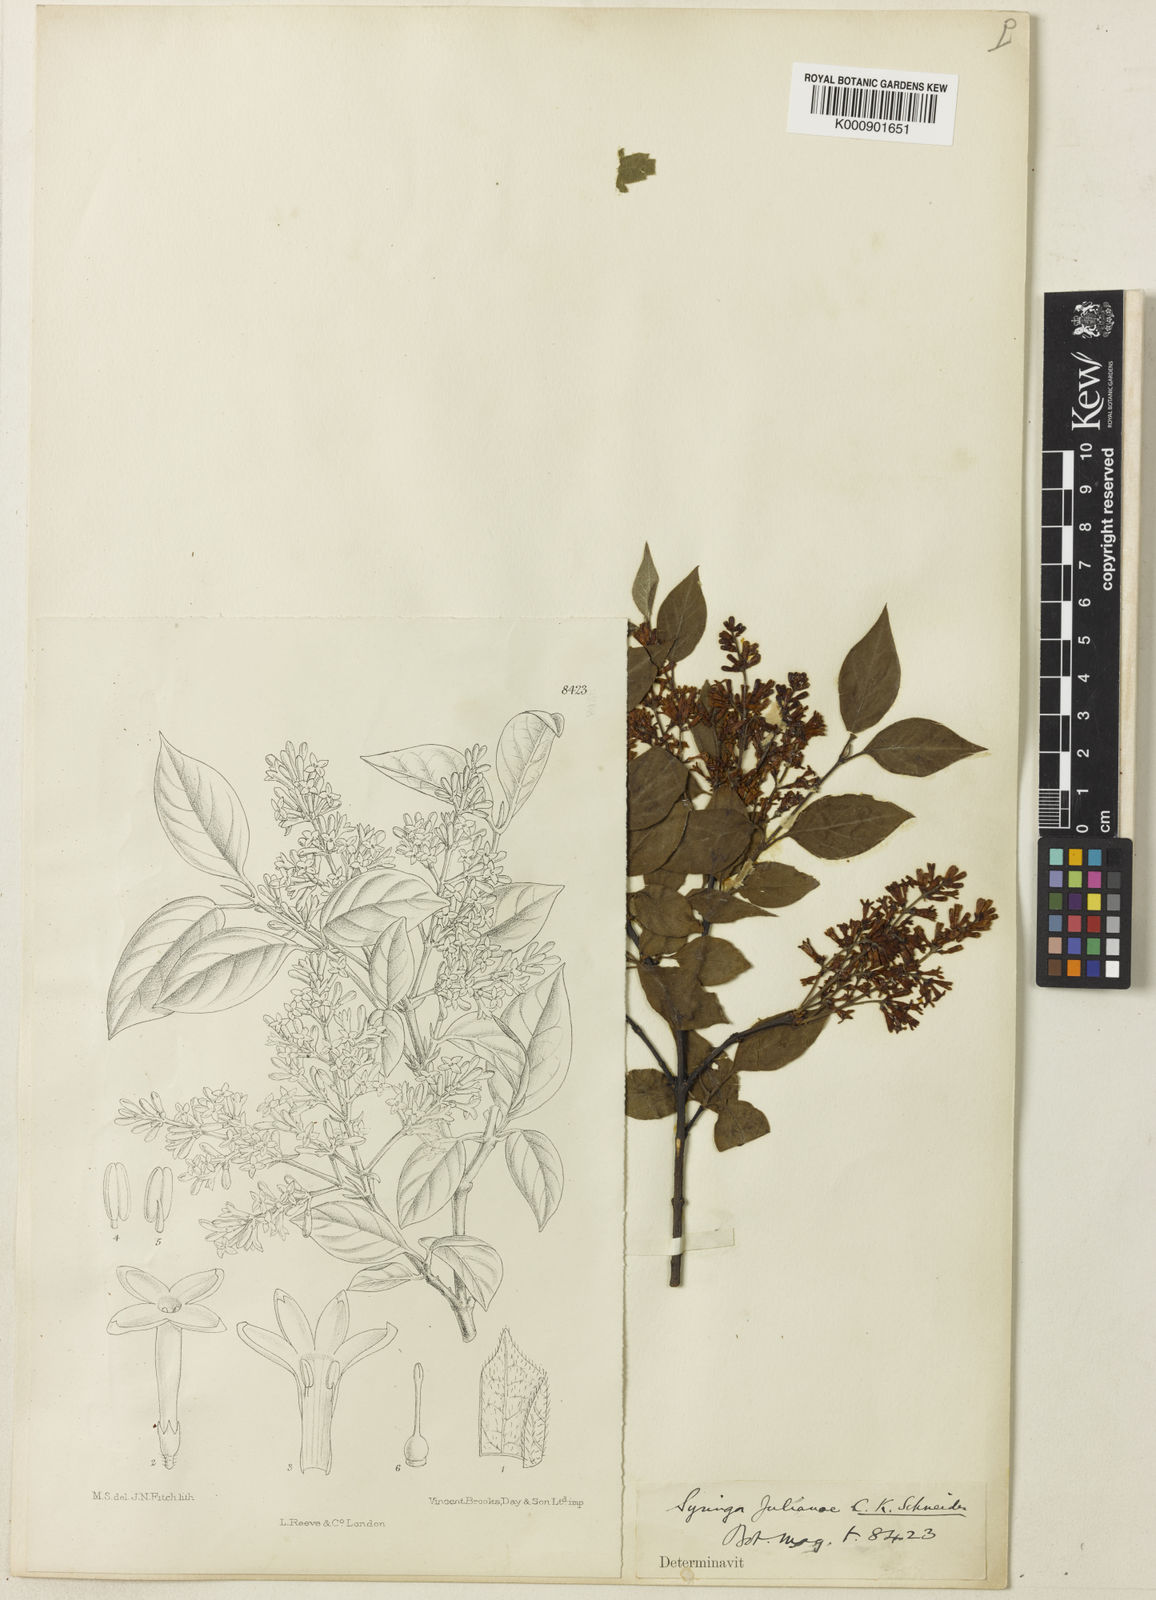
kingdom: Plantae
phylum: Tracheophyta
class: Magnoliopsida
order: Lamiales
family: Oleaceae
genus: Syringa
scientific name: Syringa pubescens
